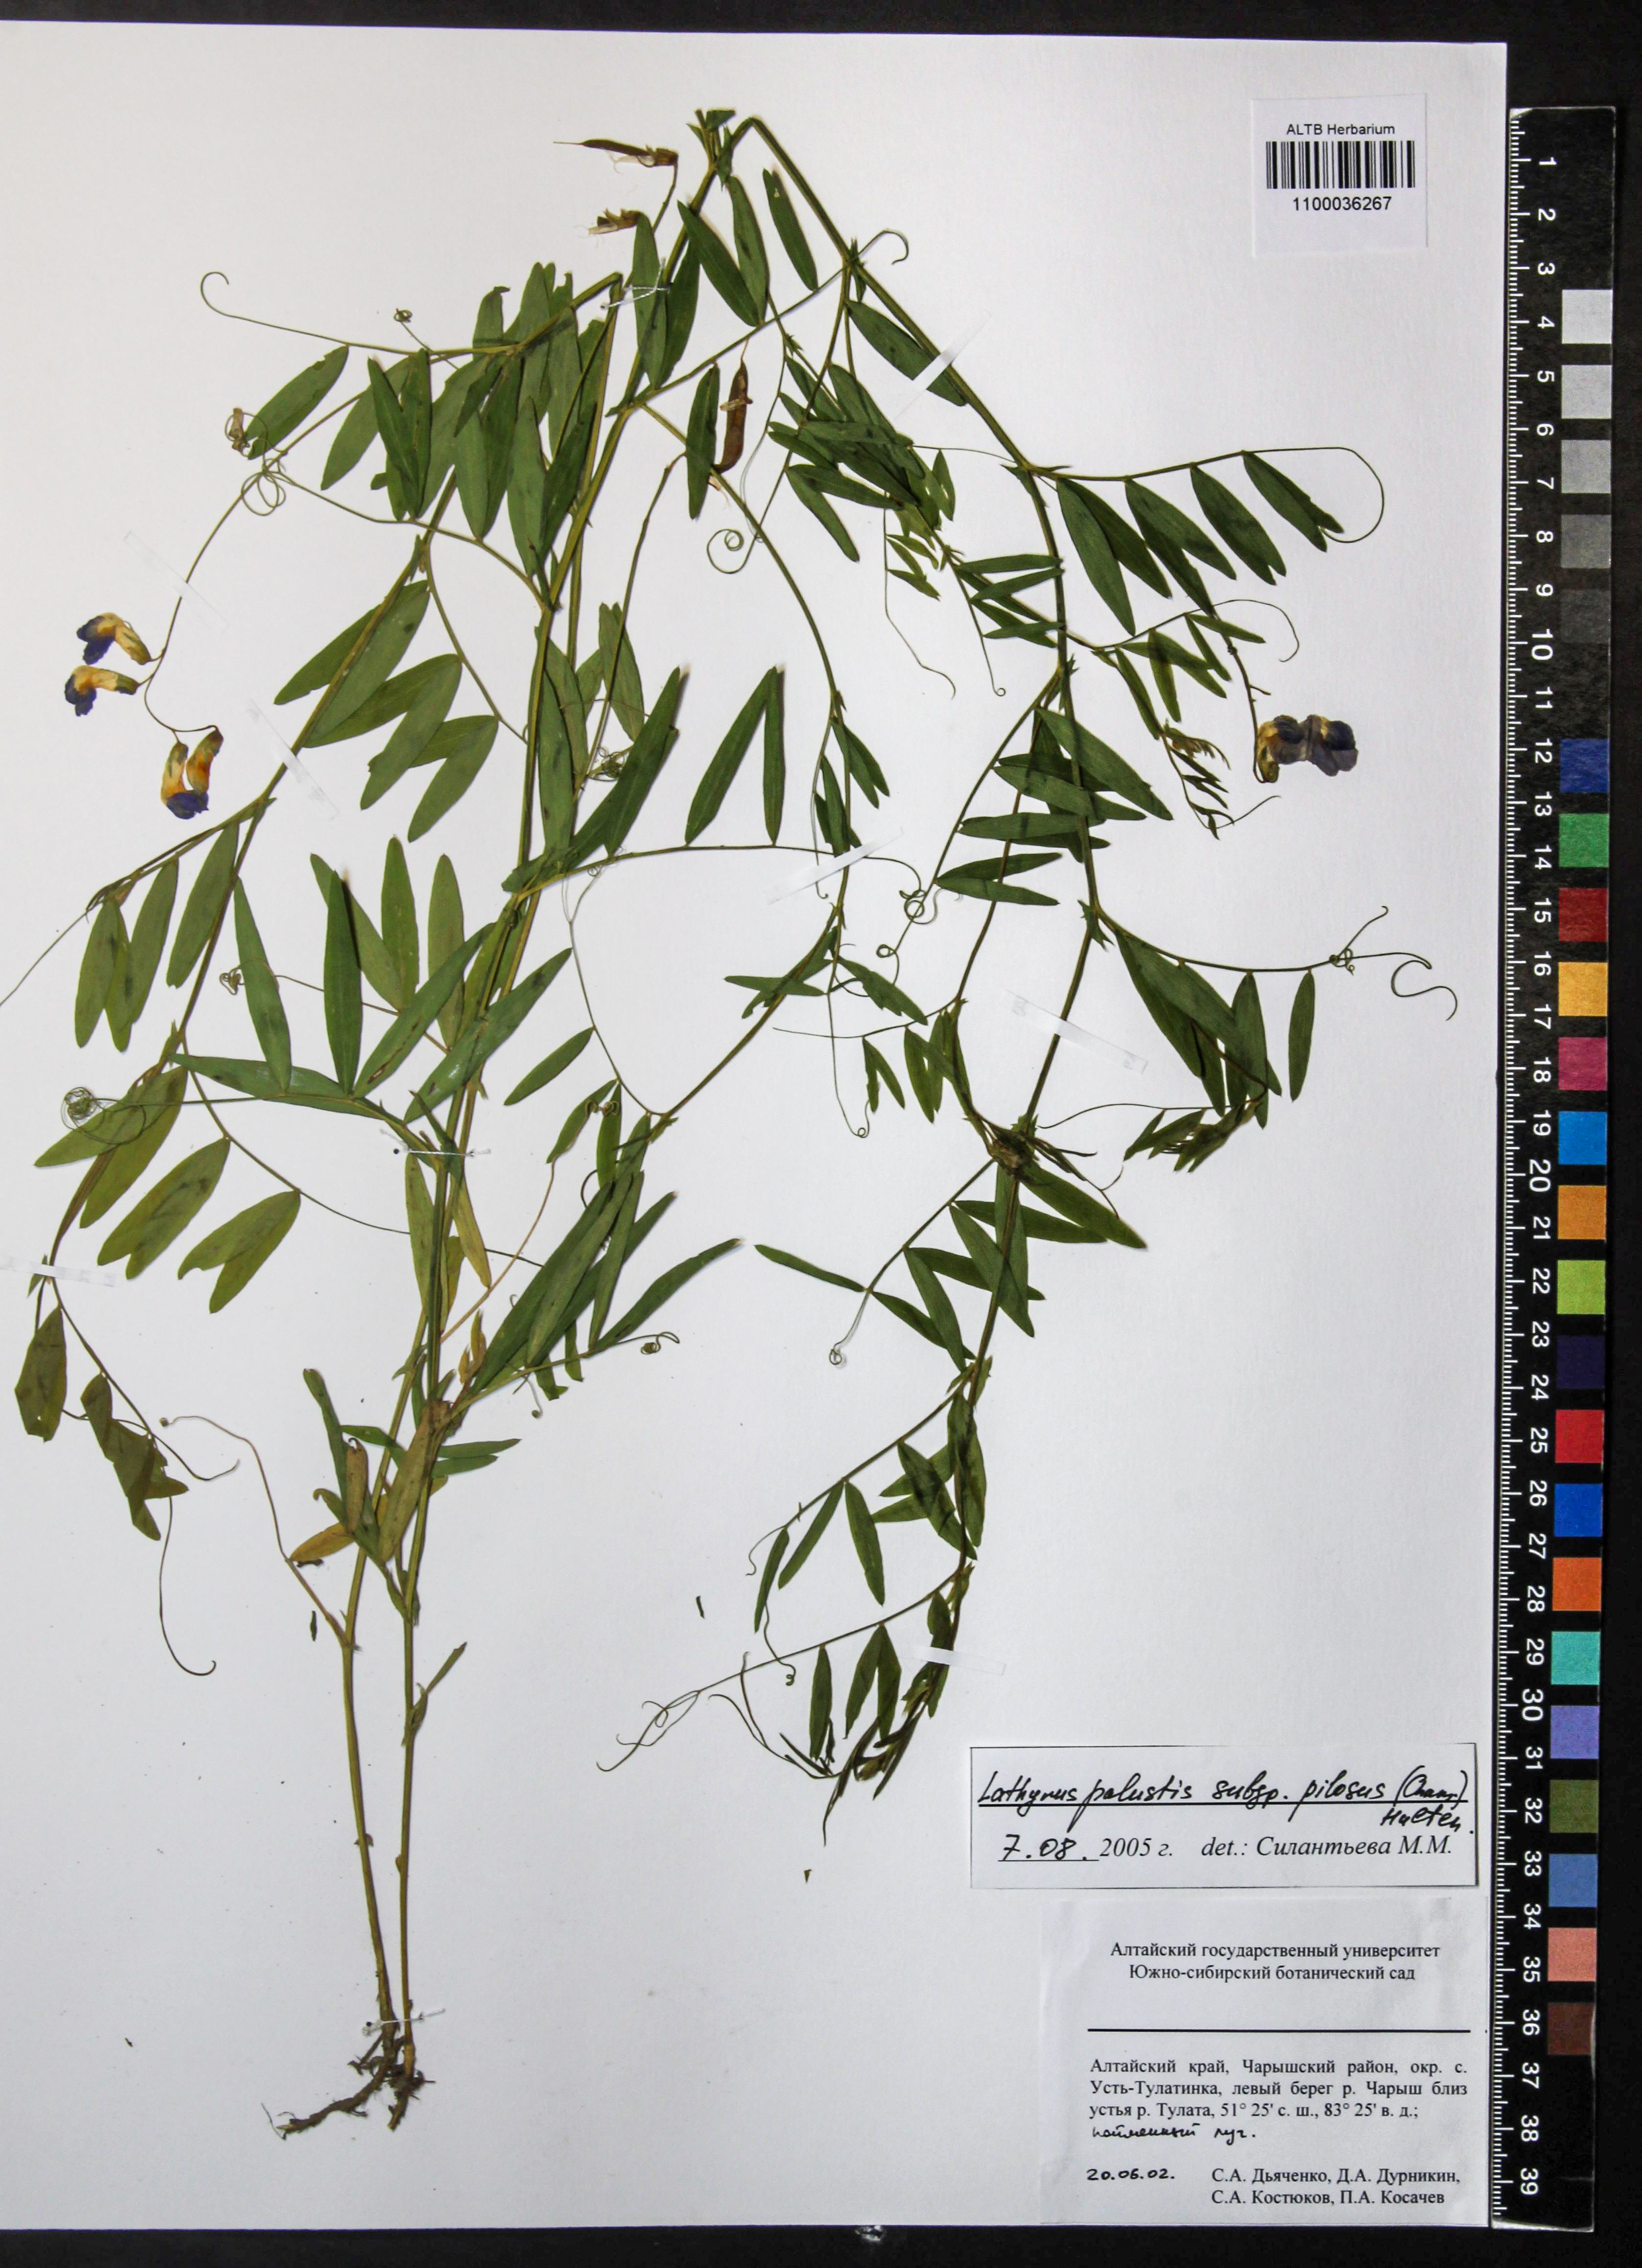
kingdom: Plantae
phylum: Tracheophyta
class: Magnoliopsida
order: Fabales
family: Fabaceae
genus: Lathyrus
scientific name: Lathyrus palustris
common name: Marsh pea
